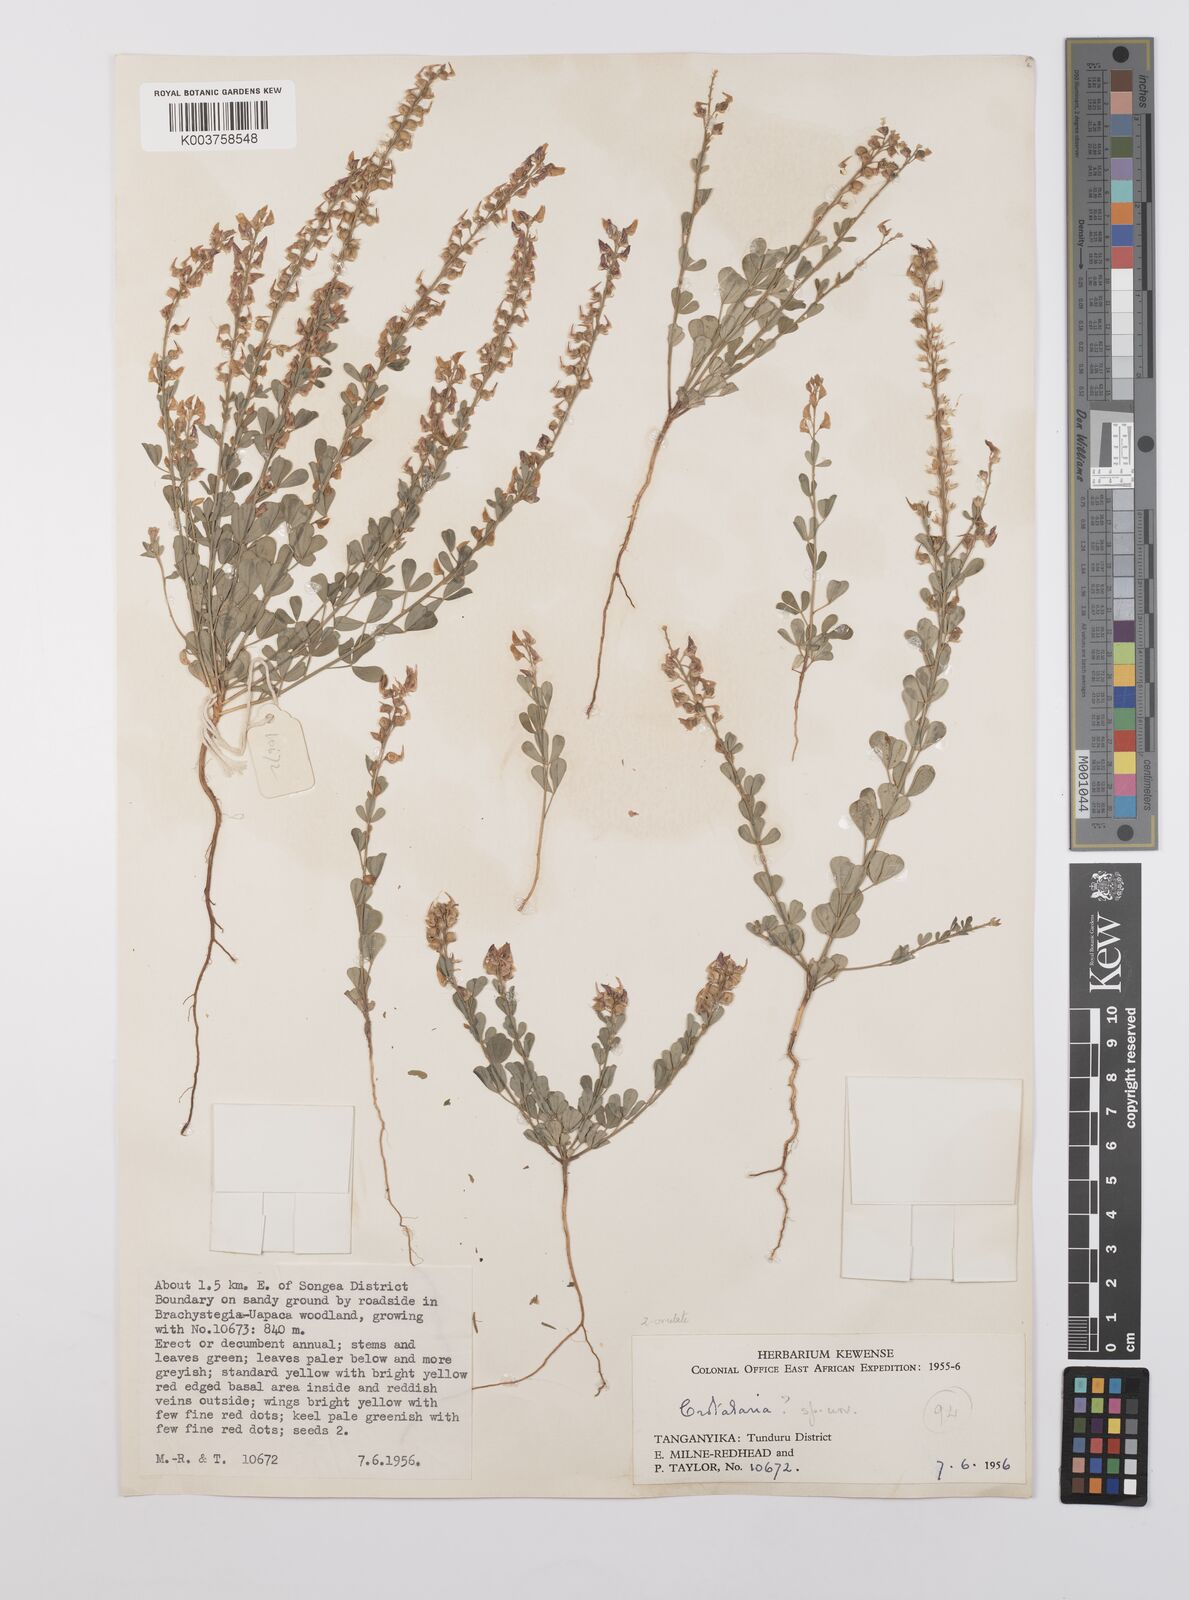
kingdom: Plantae
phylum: Tracheophyta
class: Magnoliopsida
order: Fabales
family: Fabaceae
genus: Crotalaria
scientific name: Crotalaria hyssopifolia
